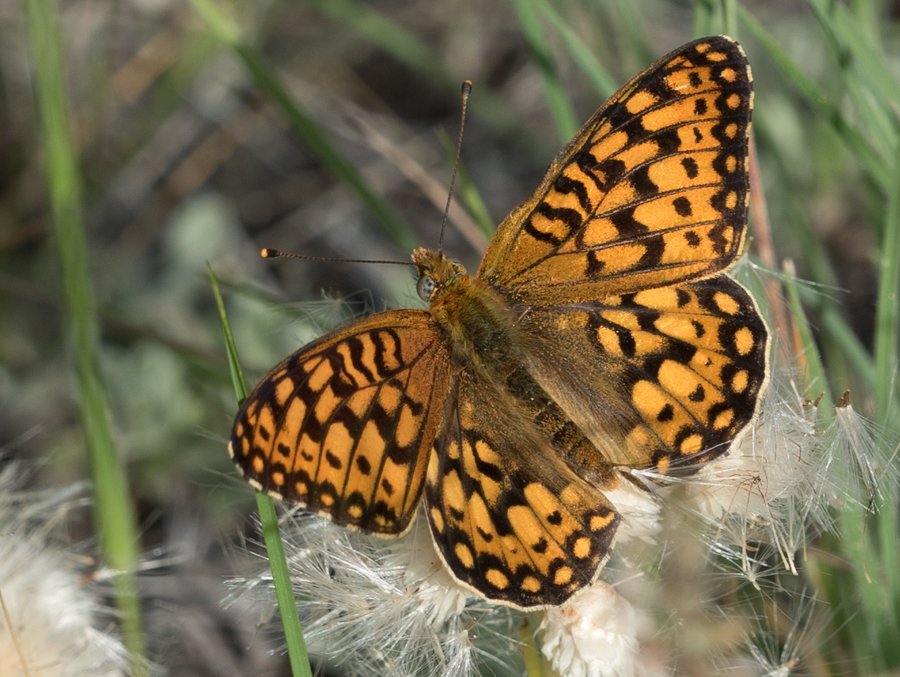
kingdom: Animalia
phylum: Arthropoda
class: Insecta
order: Lepidoptera
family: Nymphalidae
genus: Speyeria
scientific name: Speyeria callippe
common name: Callippe Fritillary
